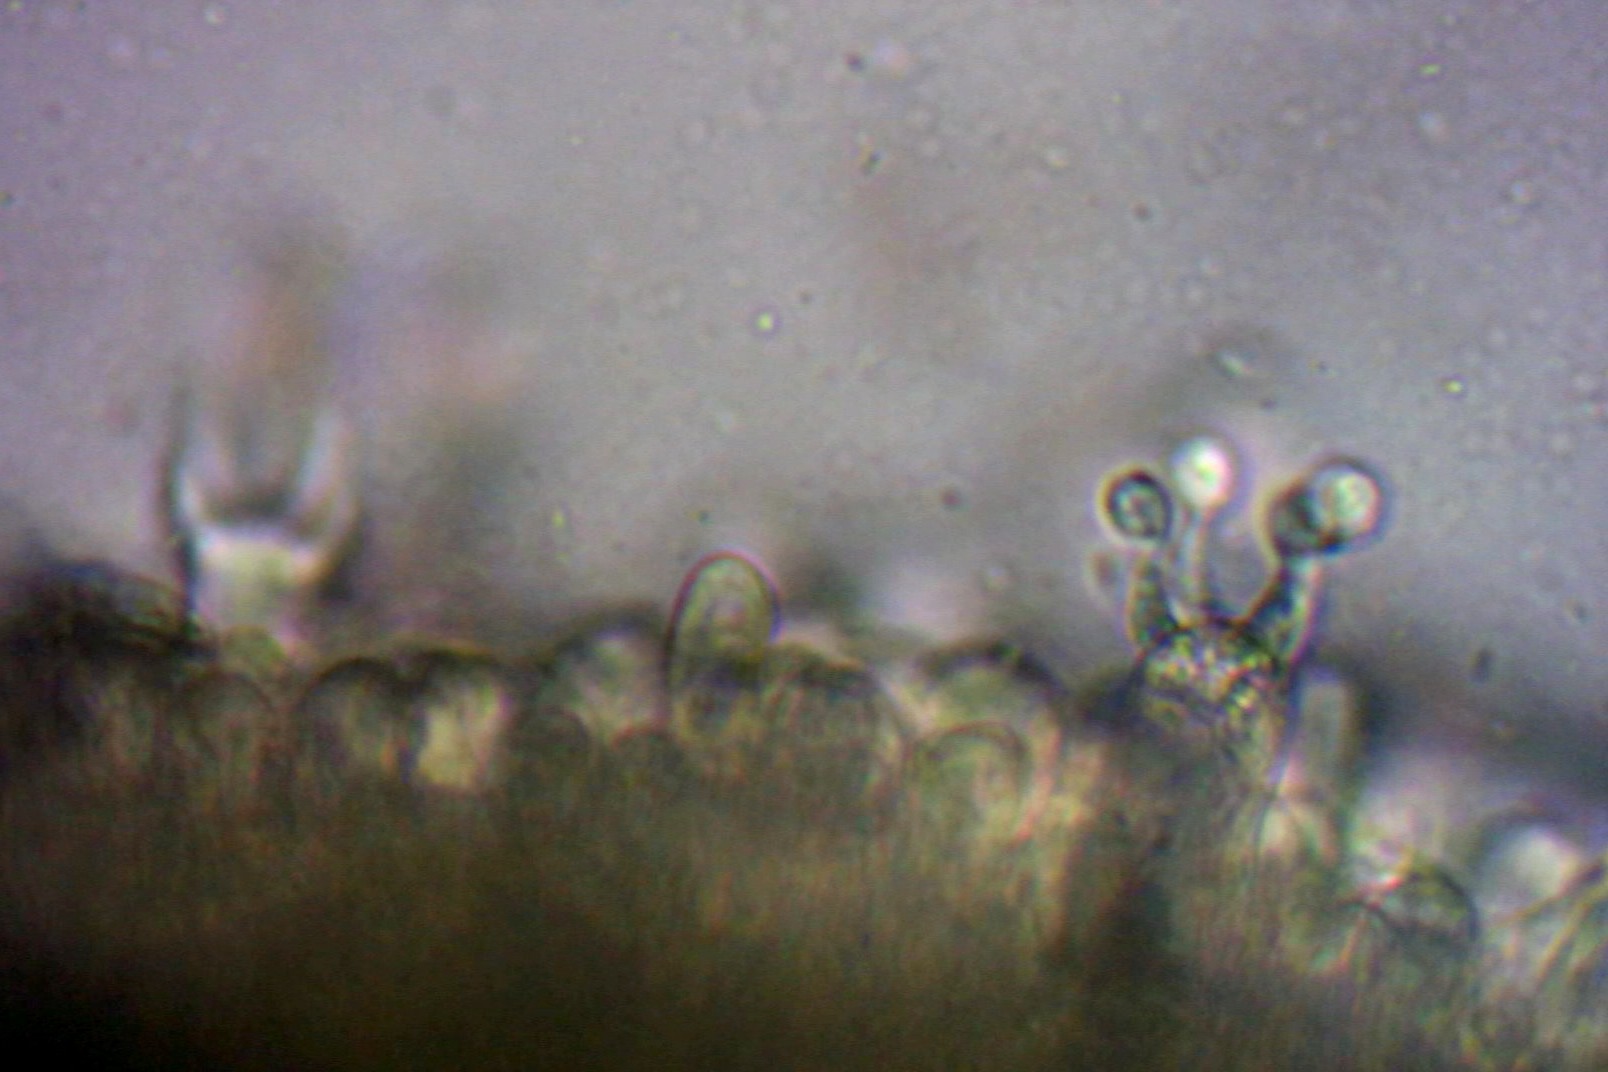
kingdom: Fungi
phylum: Basidiomycota
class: Agaricomycetes
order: Agaricales
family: Niaceae
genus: Lachnella
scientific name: Lachnella alboviolascens
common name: grå frynserede
